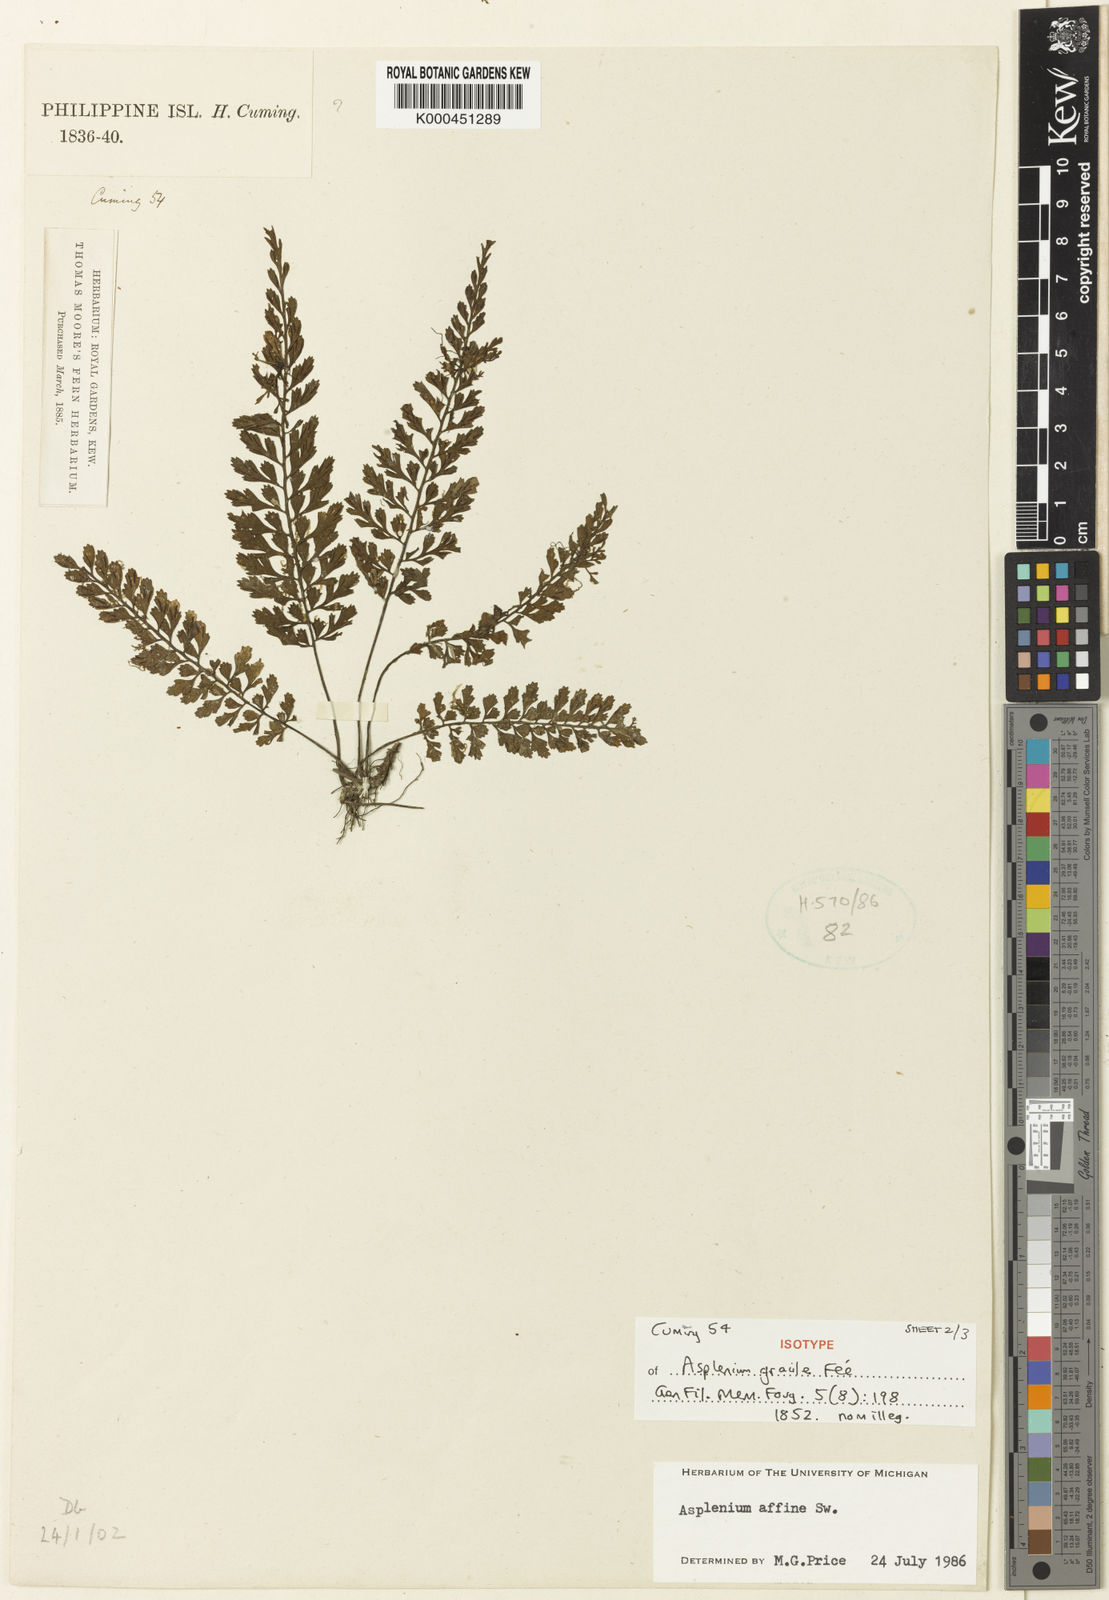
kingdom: Plantae
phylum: Tracheophyta
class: Polypodiopsida
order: Polypodiales
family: Aspleniaceae
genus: Asplenium
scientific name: Asplenium baileyanum
